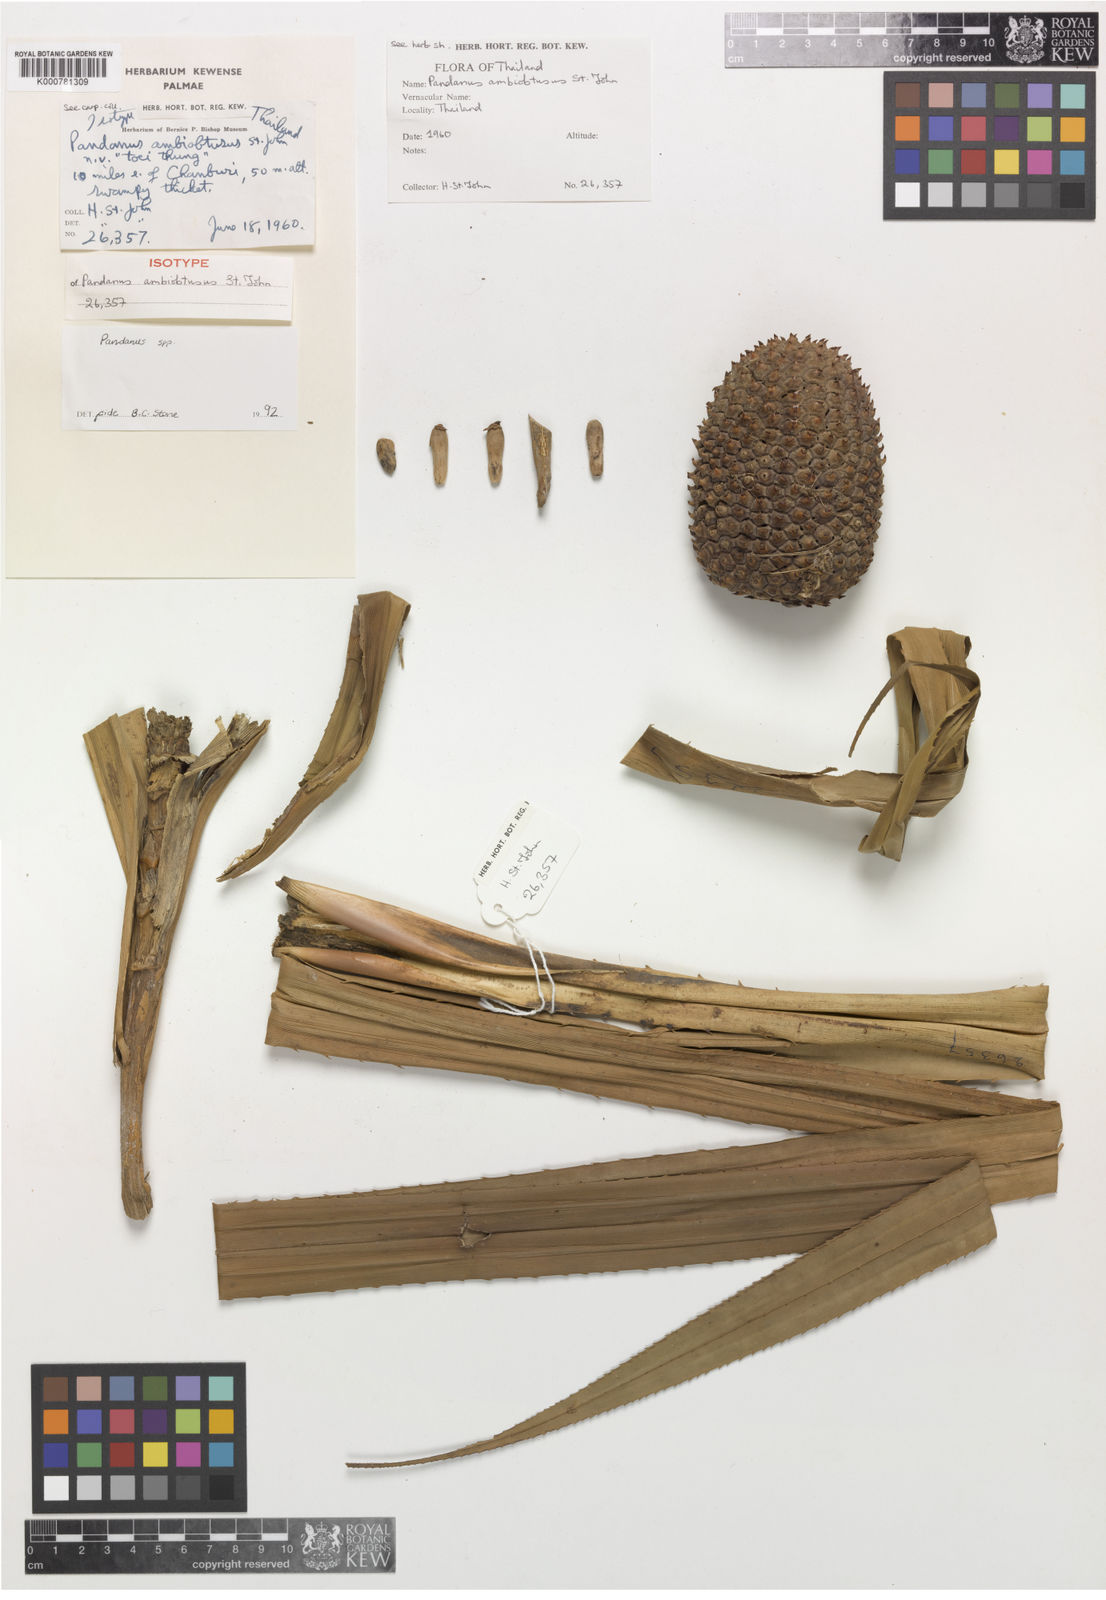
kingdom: Plantae
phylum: Tracheophyta
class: Liliopsida
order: Pandanales
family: Pandanaceae
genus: Pandanus
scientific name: Pandanus obconicus
